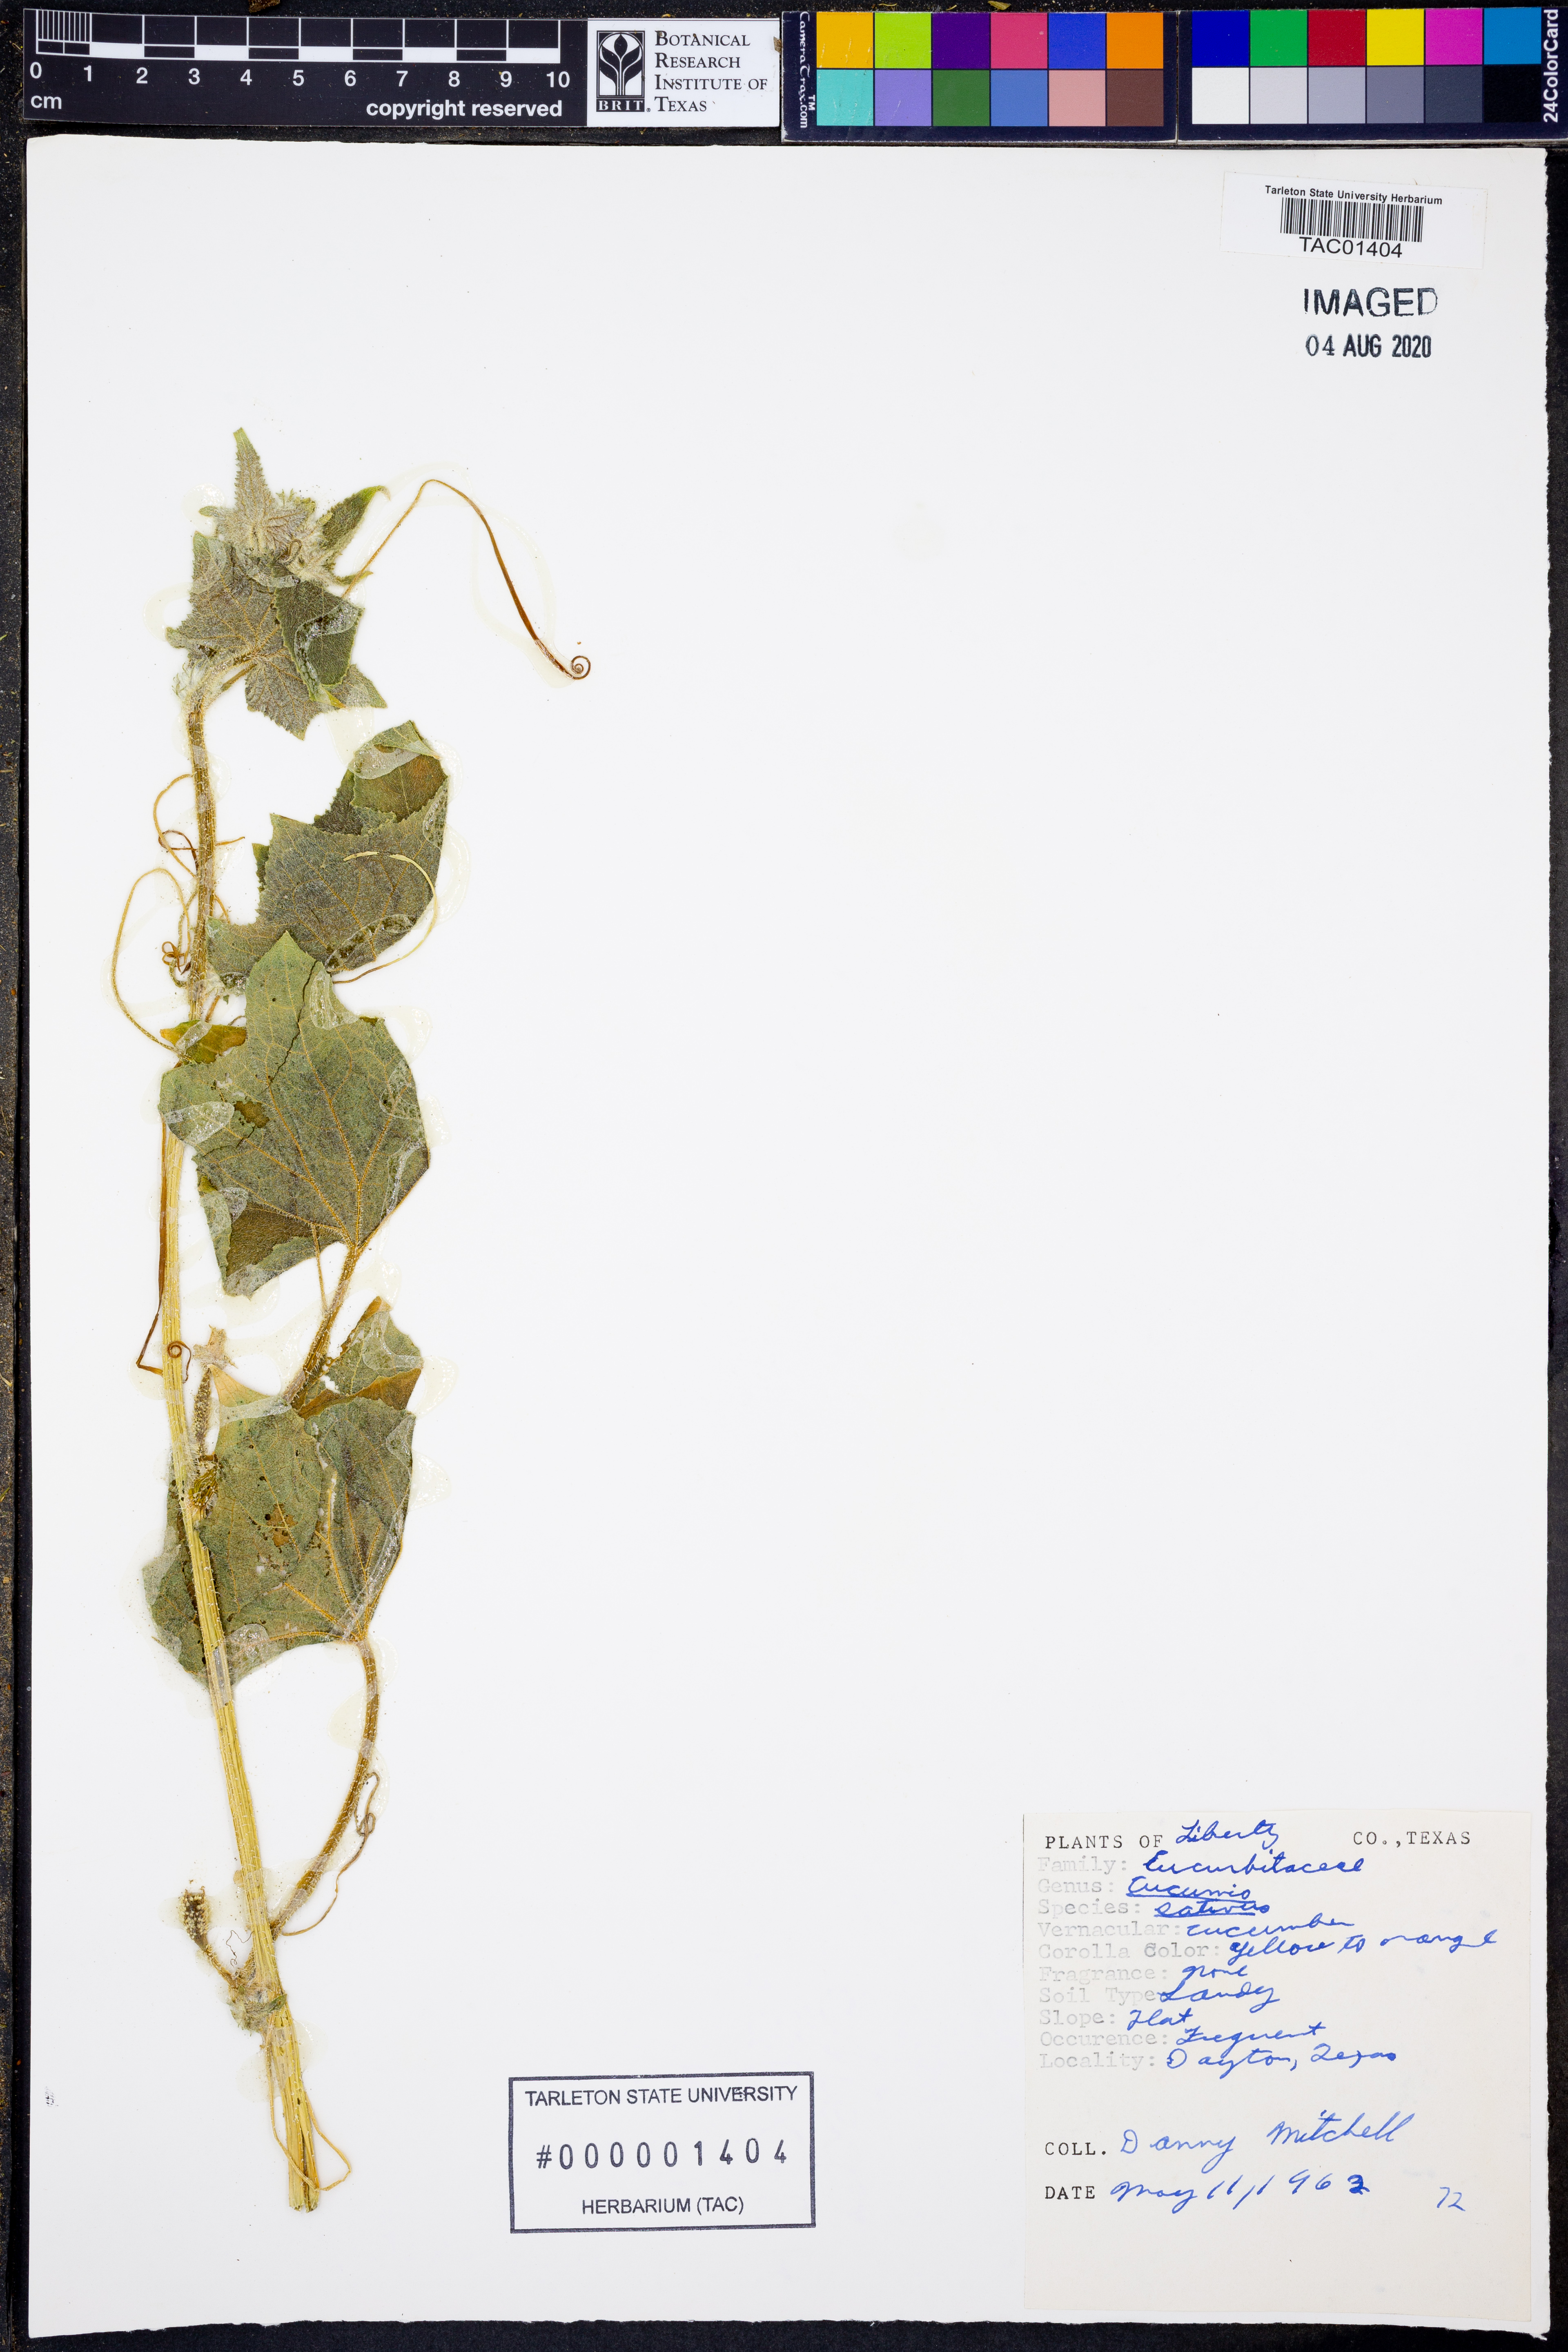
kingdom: Plantae
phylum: Tracheophyta
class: Magnoliopsida
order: Cucurbitales
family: Cucurbitaceae
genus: Cucumis
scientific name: Cucumis sativus
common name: Cucumber
